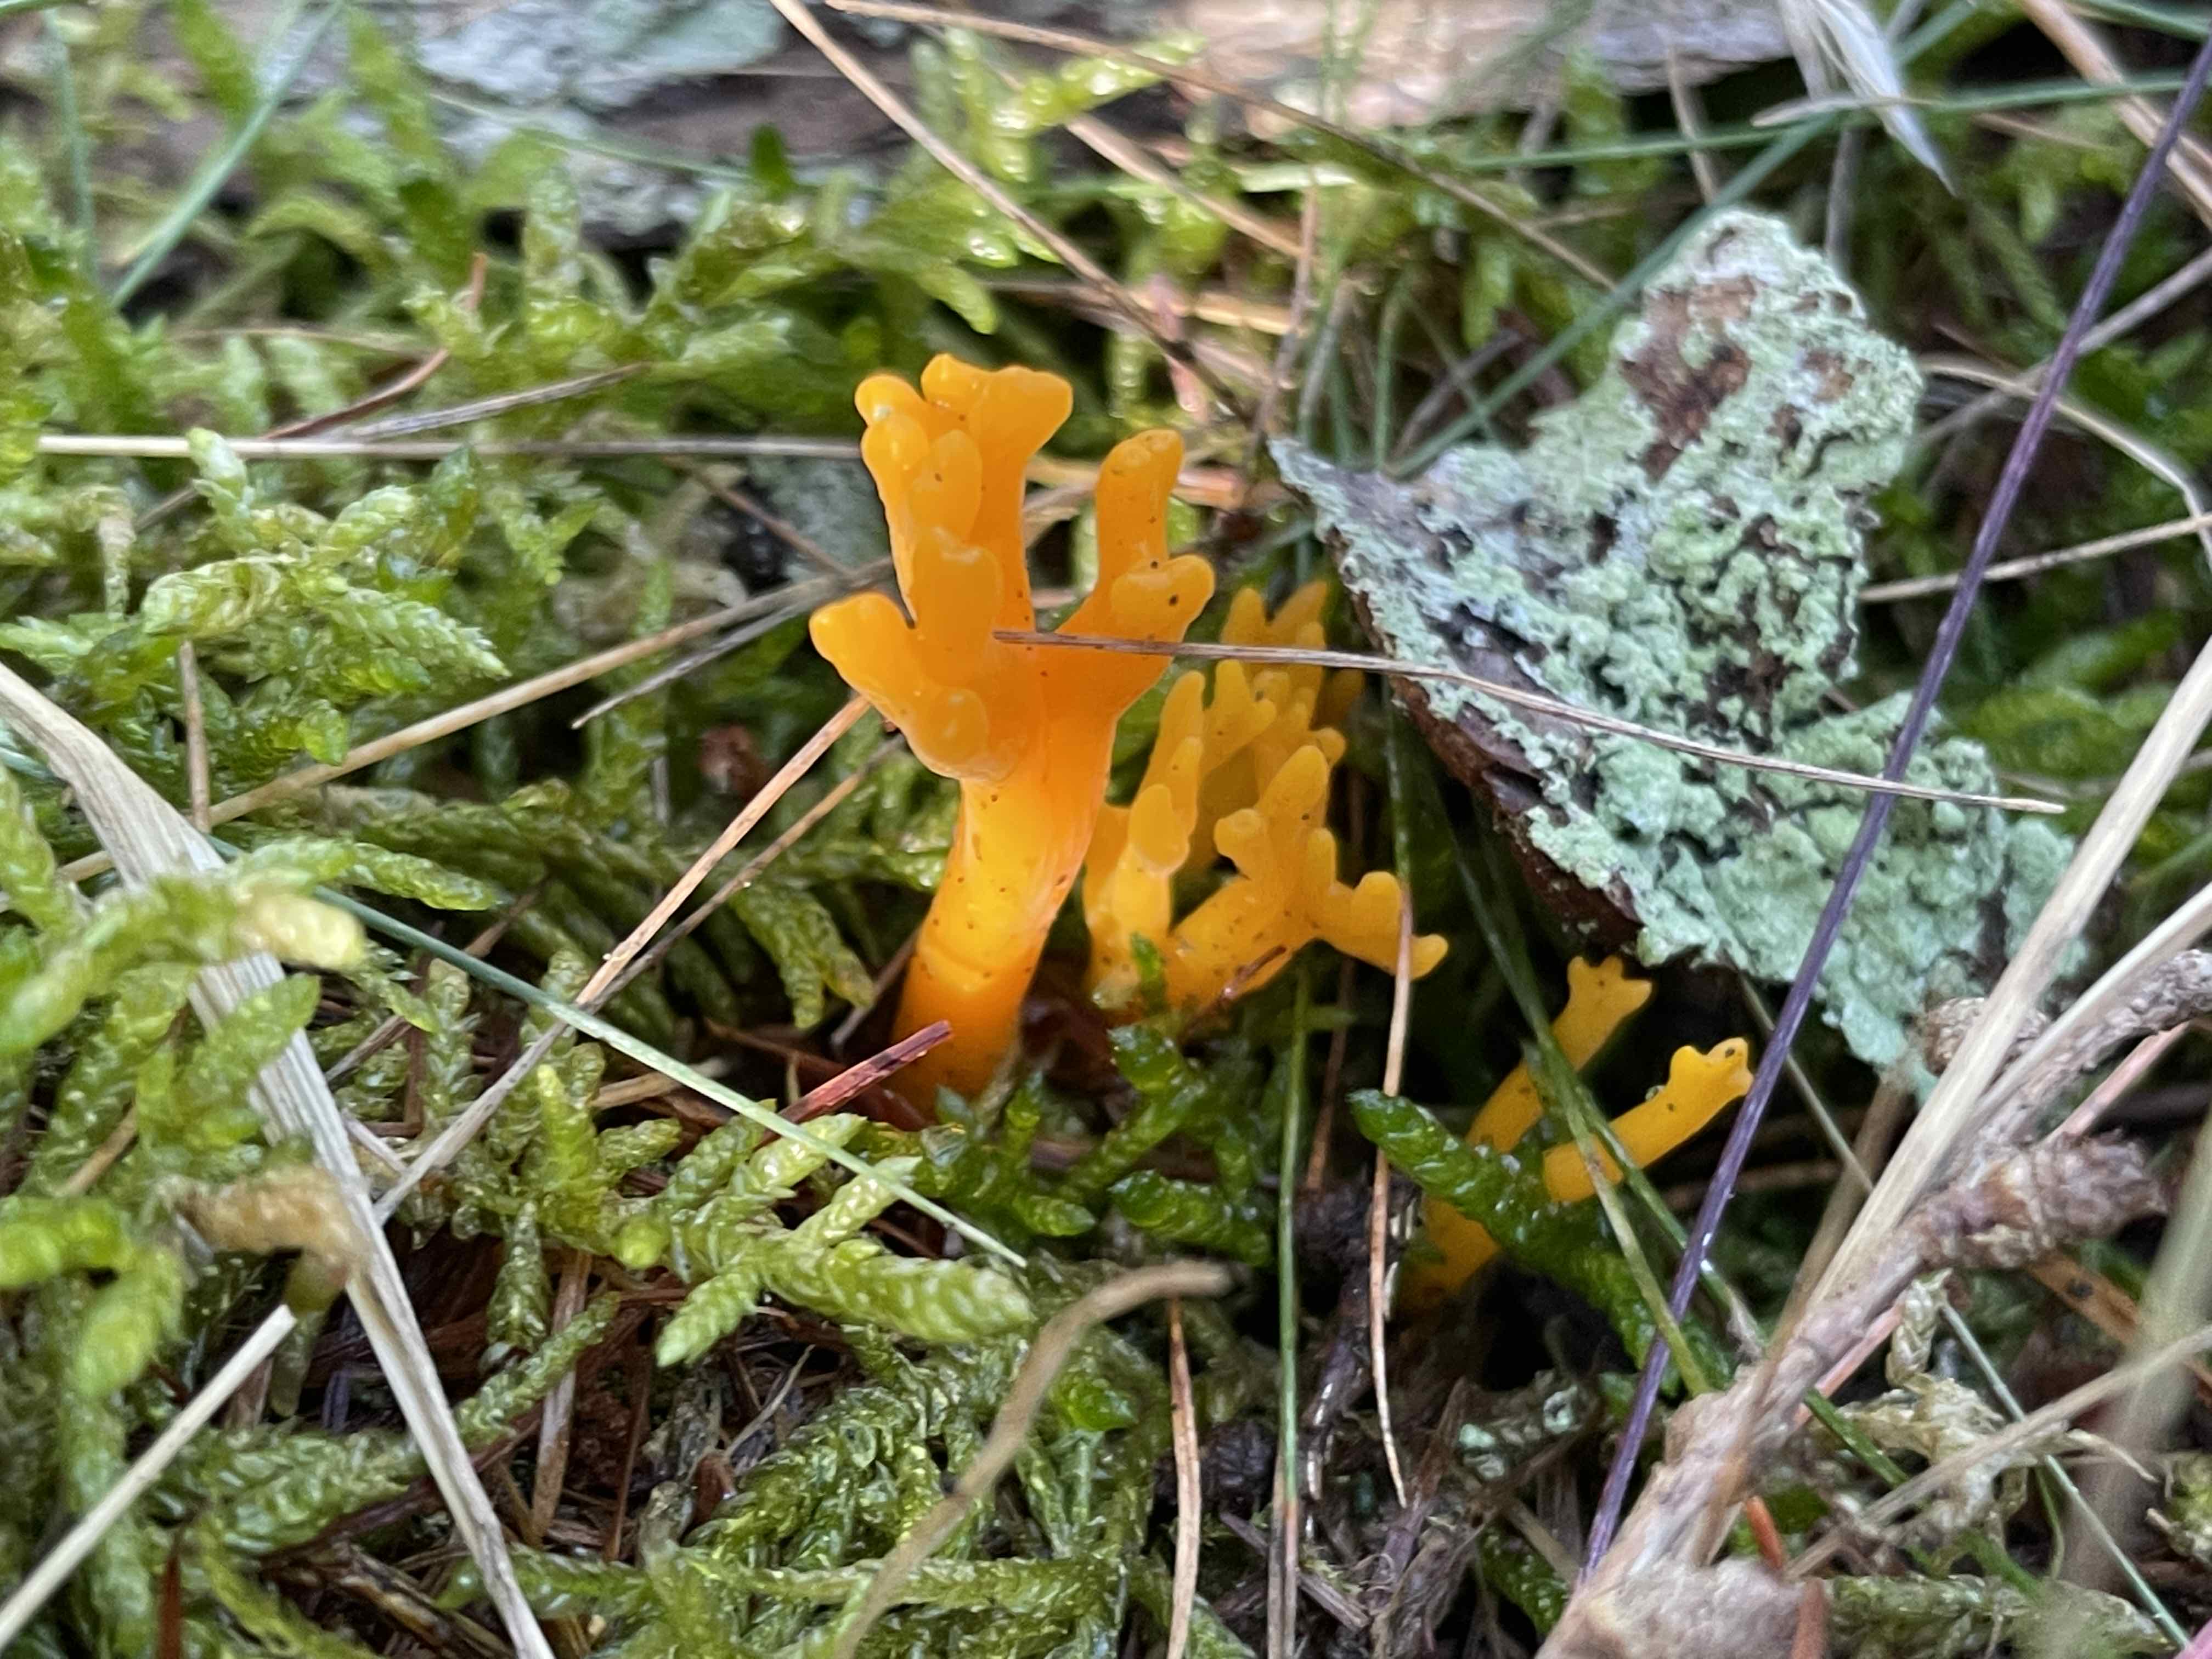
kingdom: Fungi
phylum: Basidiomycota
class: Dacrymycetes
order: Dacrymycetales
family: Dacrymycetaceae
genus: Calocera
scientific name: Calocera viscosa
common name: almindelig guldgaffel
